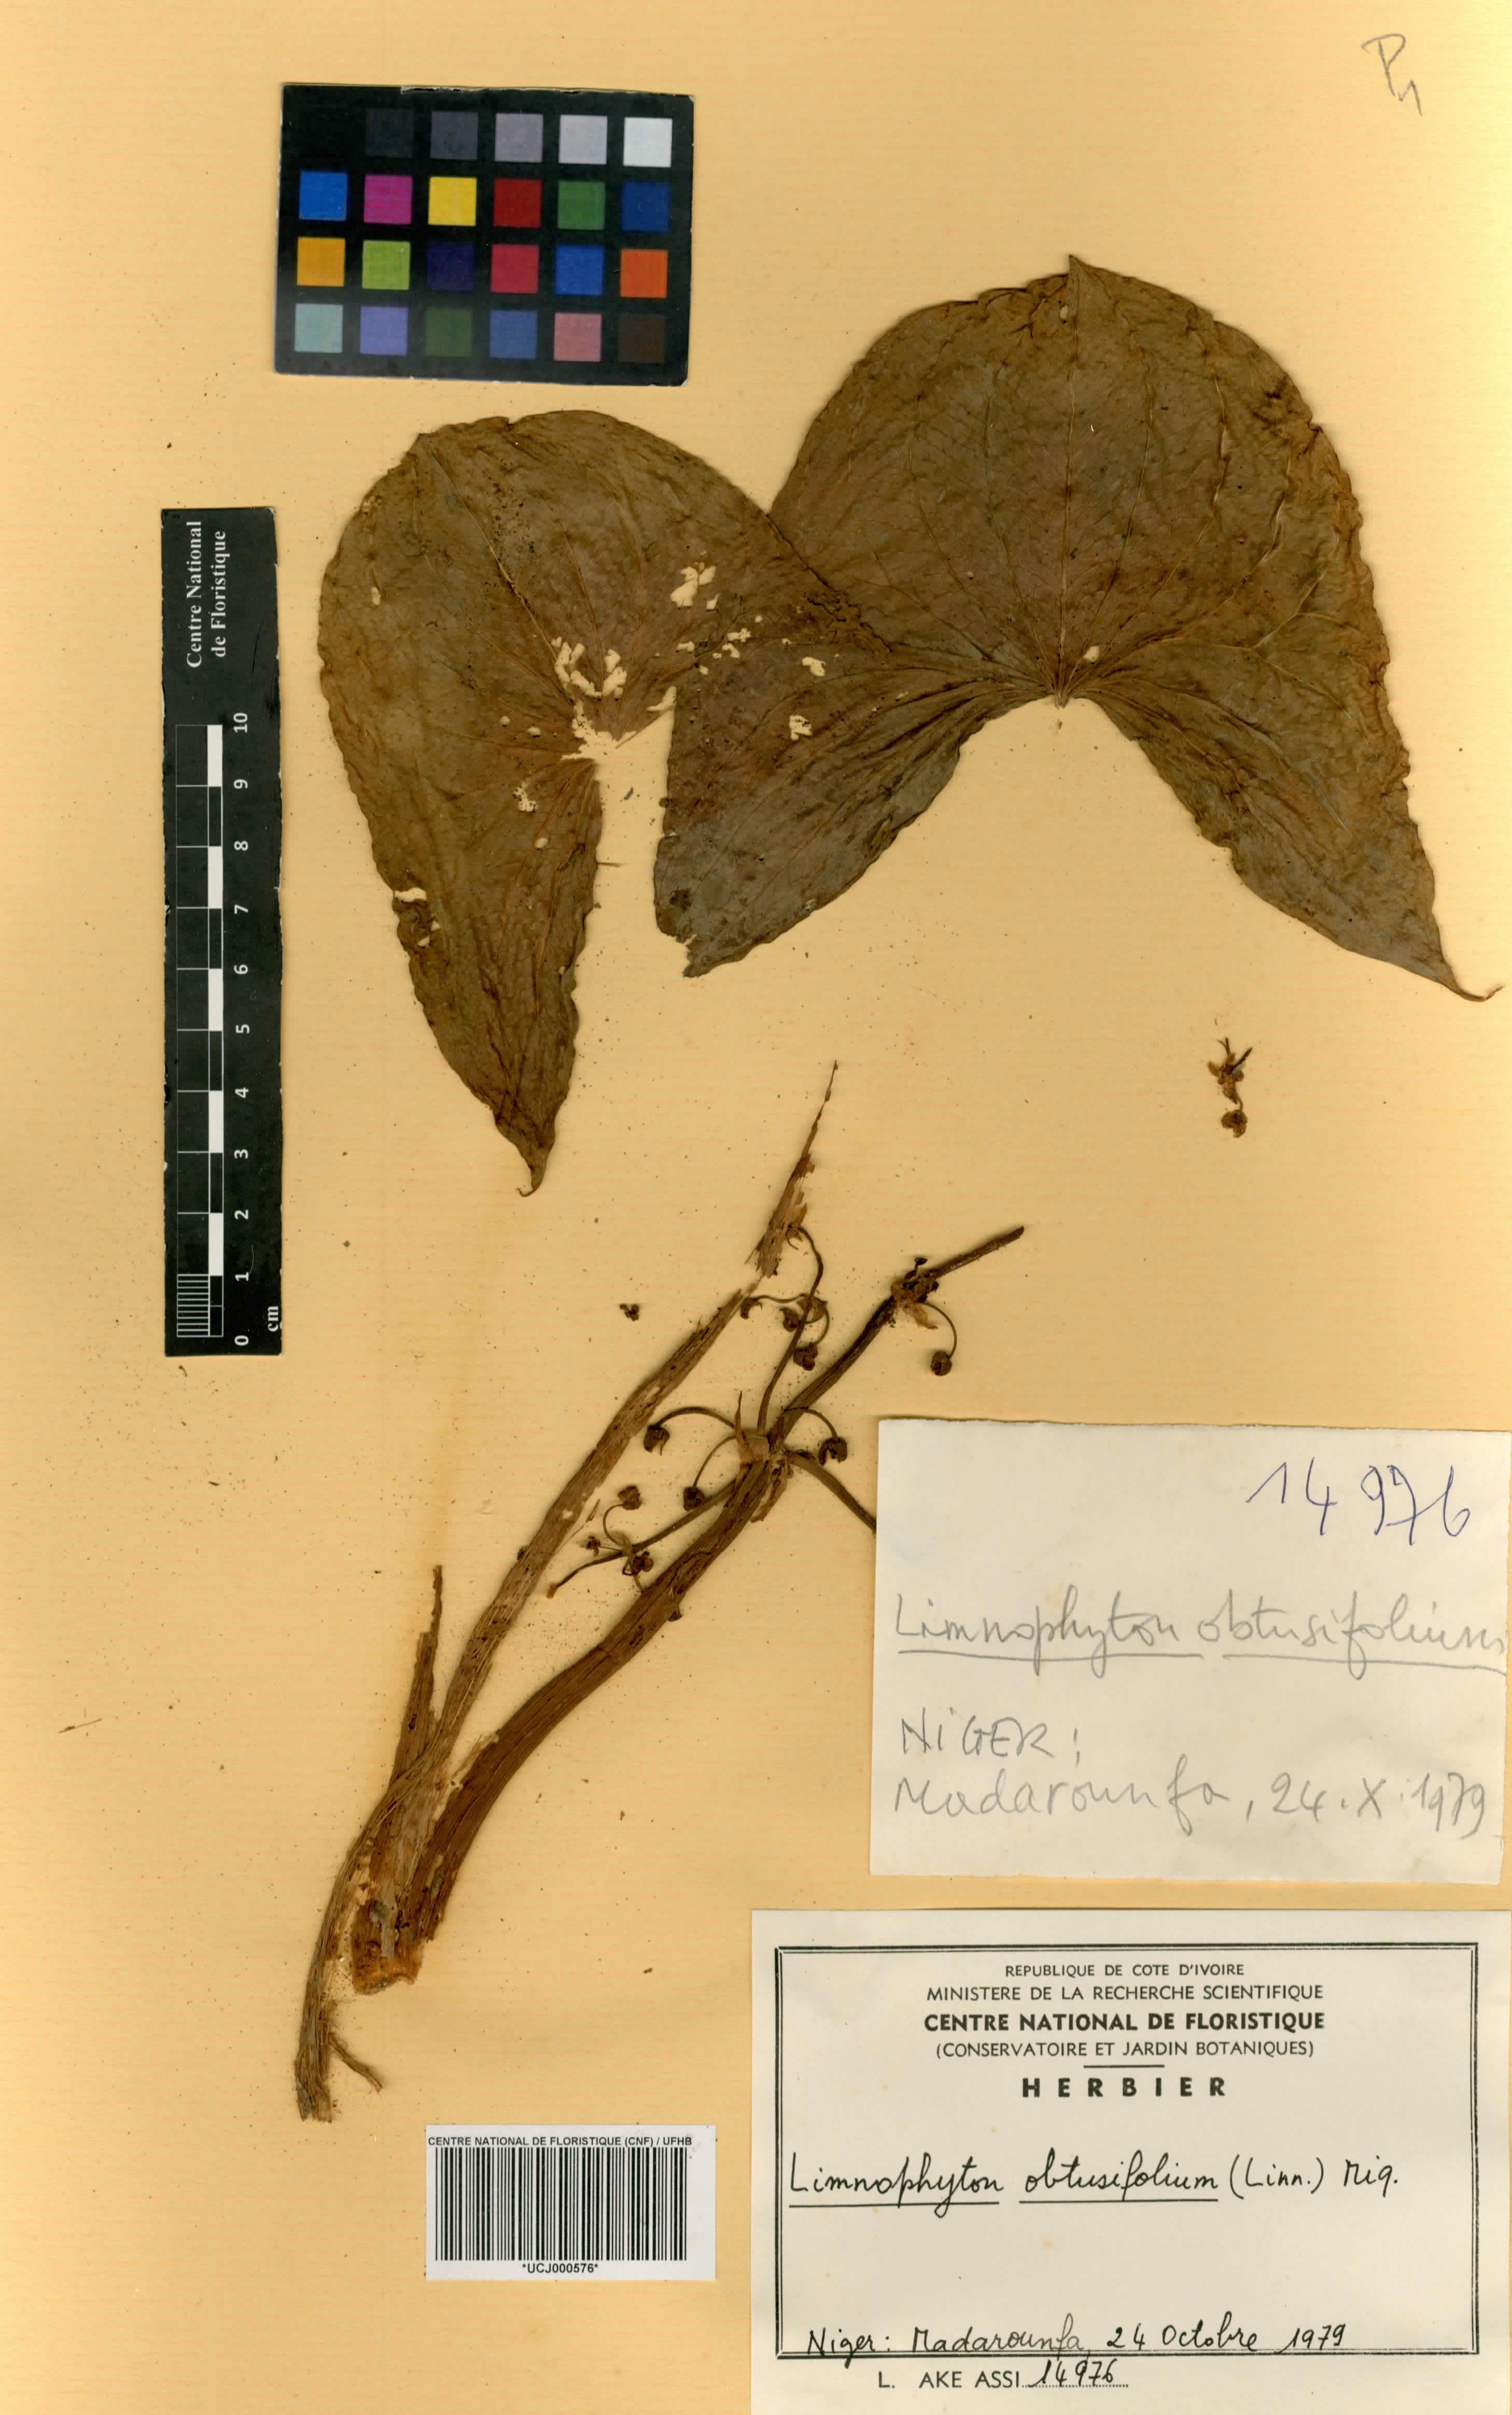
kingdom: Plantae
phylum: Tracheophyta
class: Liliopsida
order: Alismatales
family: Alismataceae
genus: Limnophyton
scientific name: Limnophyton obtusifolium
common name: Arrow head
